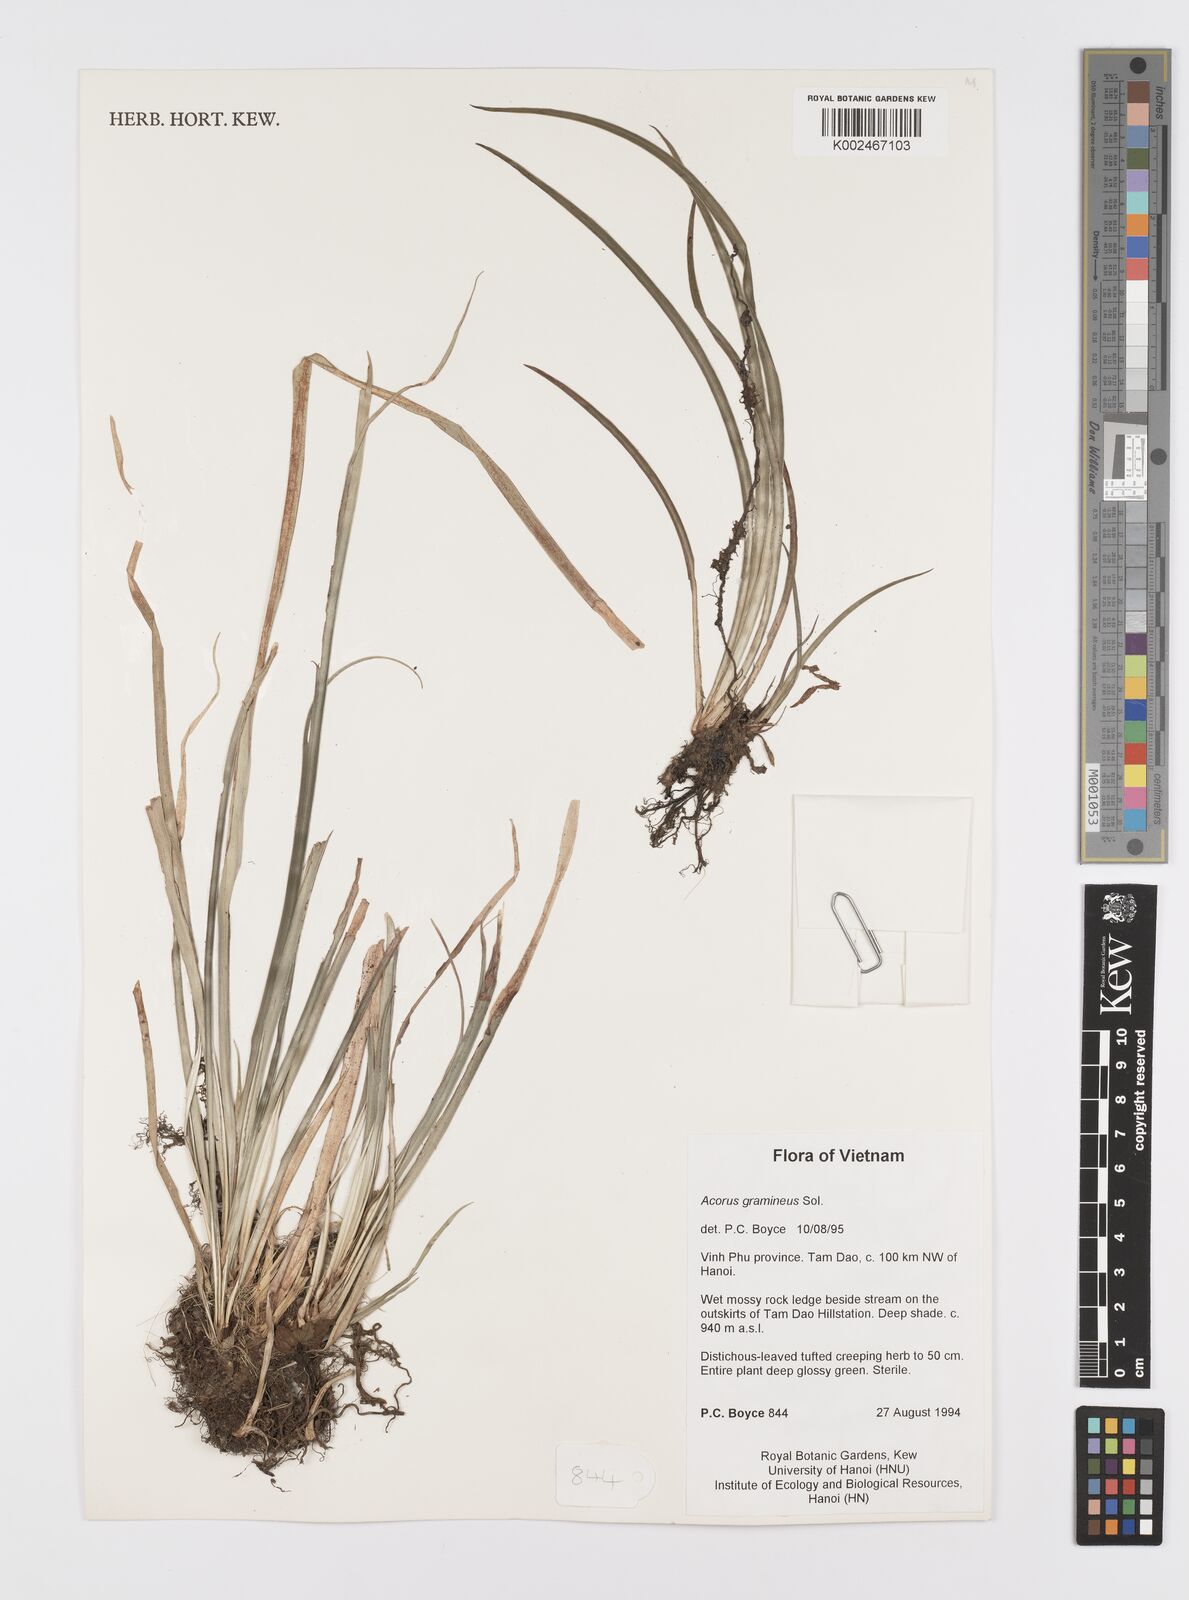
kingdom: Plantae
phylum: Tracheophyta
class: Liliopsida
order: Acorales
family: Acoraceae
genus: Acorus
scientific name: Acorus gramineus
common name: Slender sweet-flag
